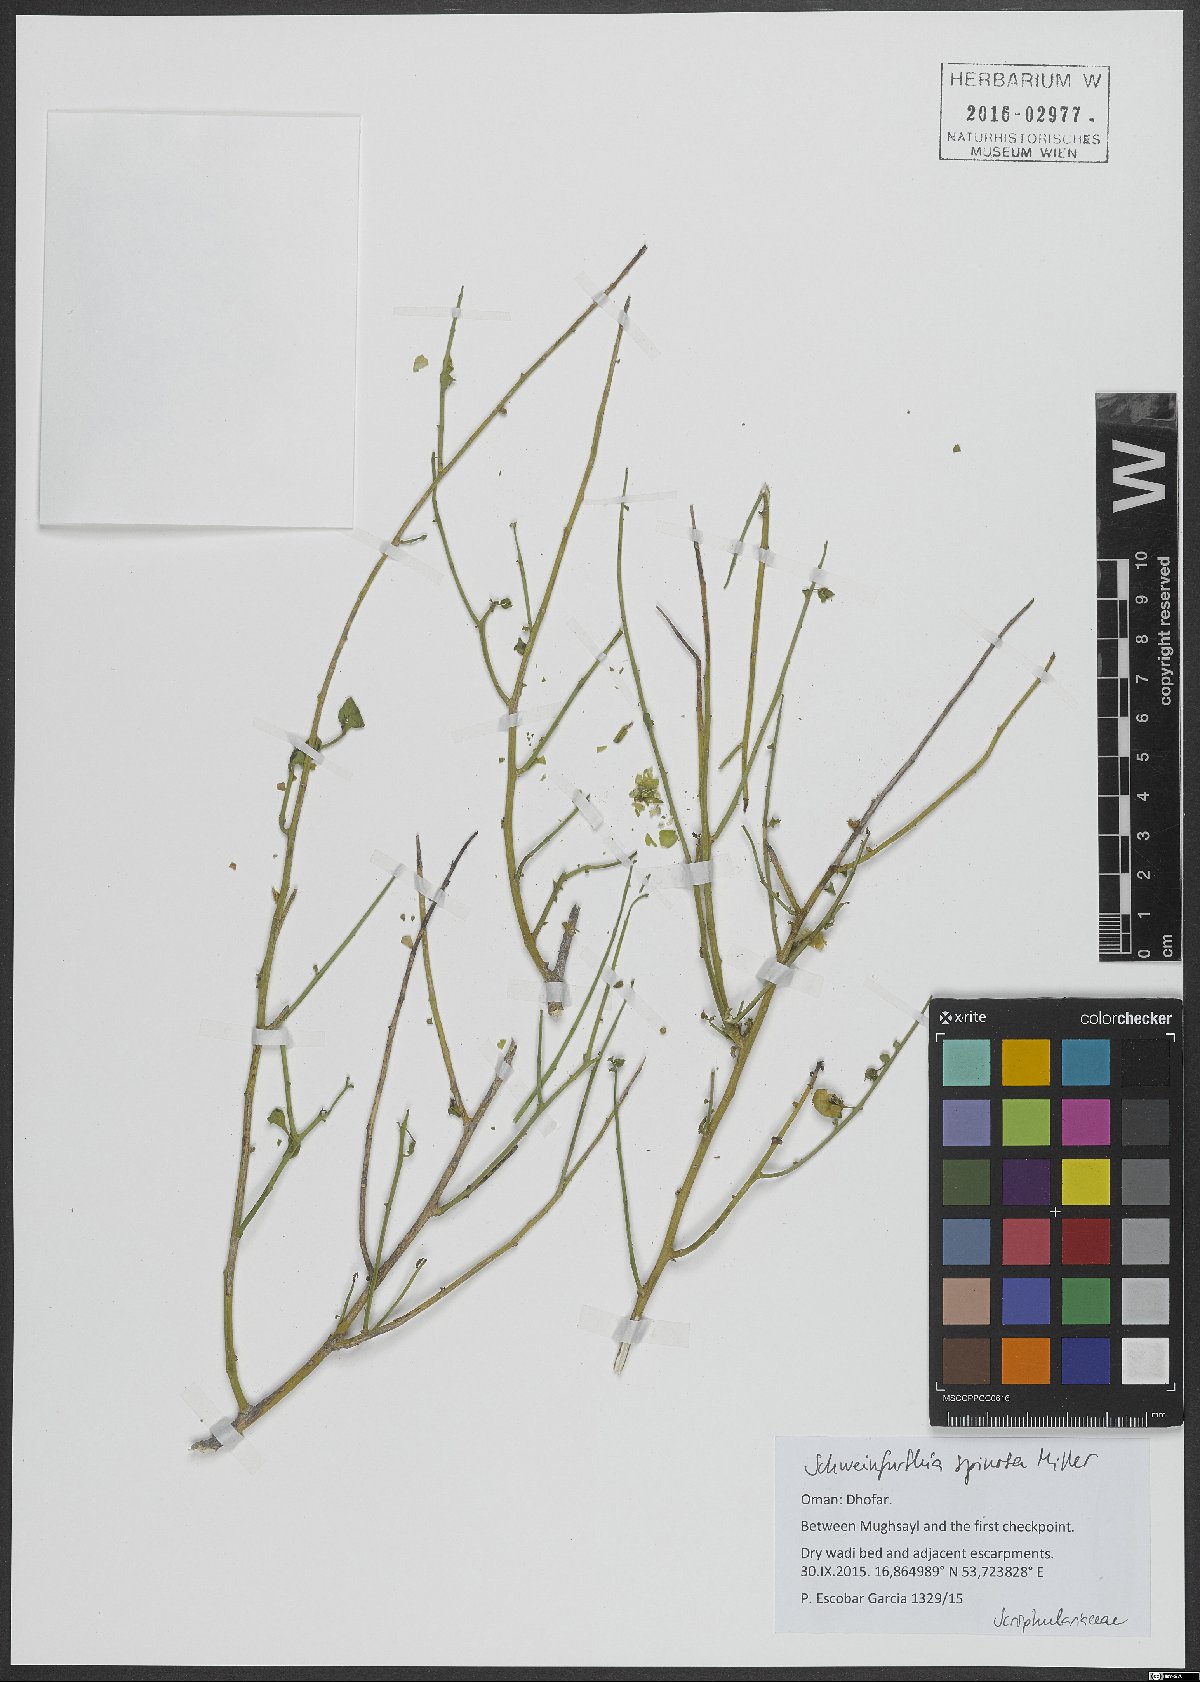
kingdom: Plantae
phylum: Tracheophyta
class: Magnoliopsida
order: Lamiales
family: Plantaginaceae
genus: Schweinfurthia
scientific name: Schweinfurthia spinosa
